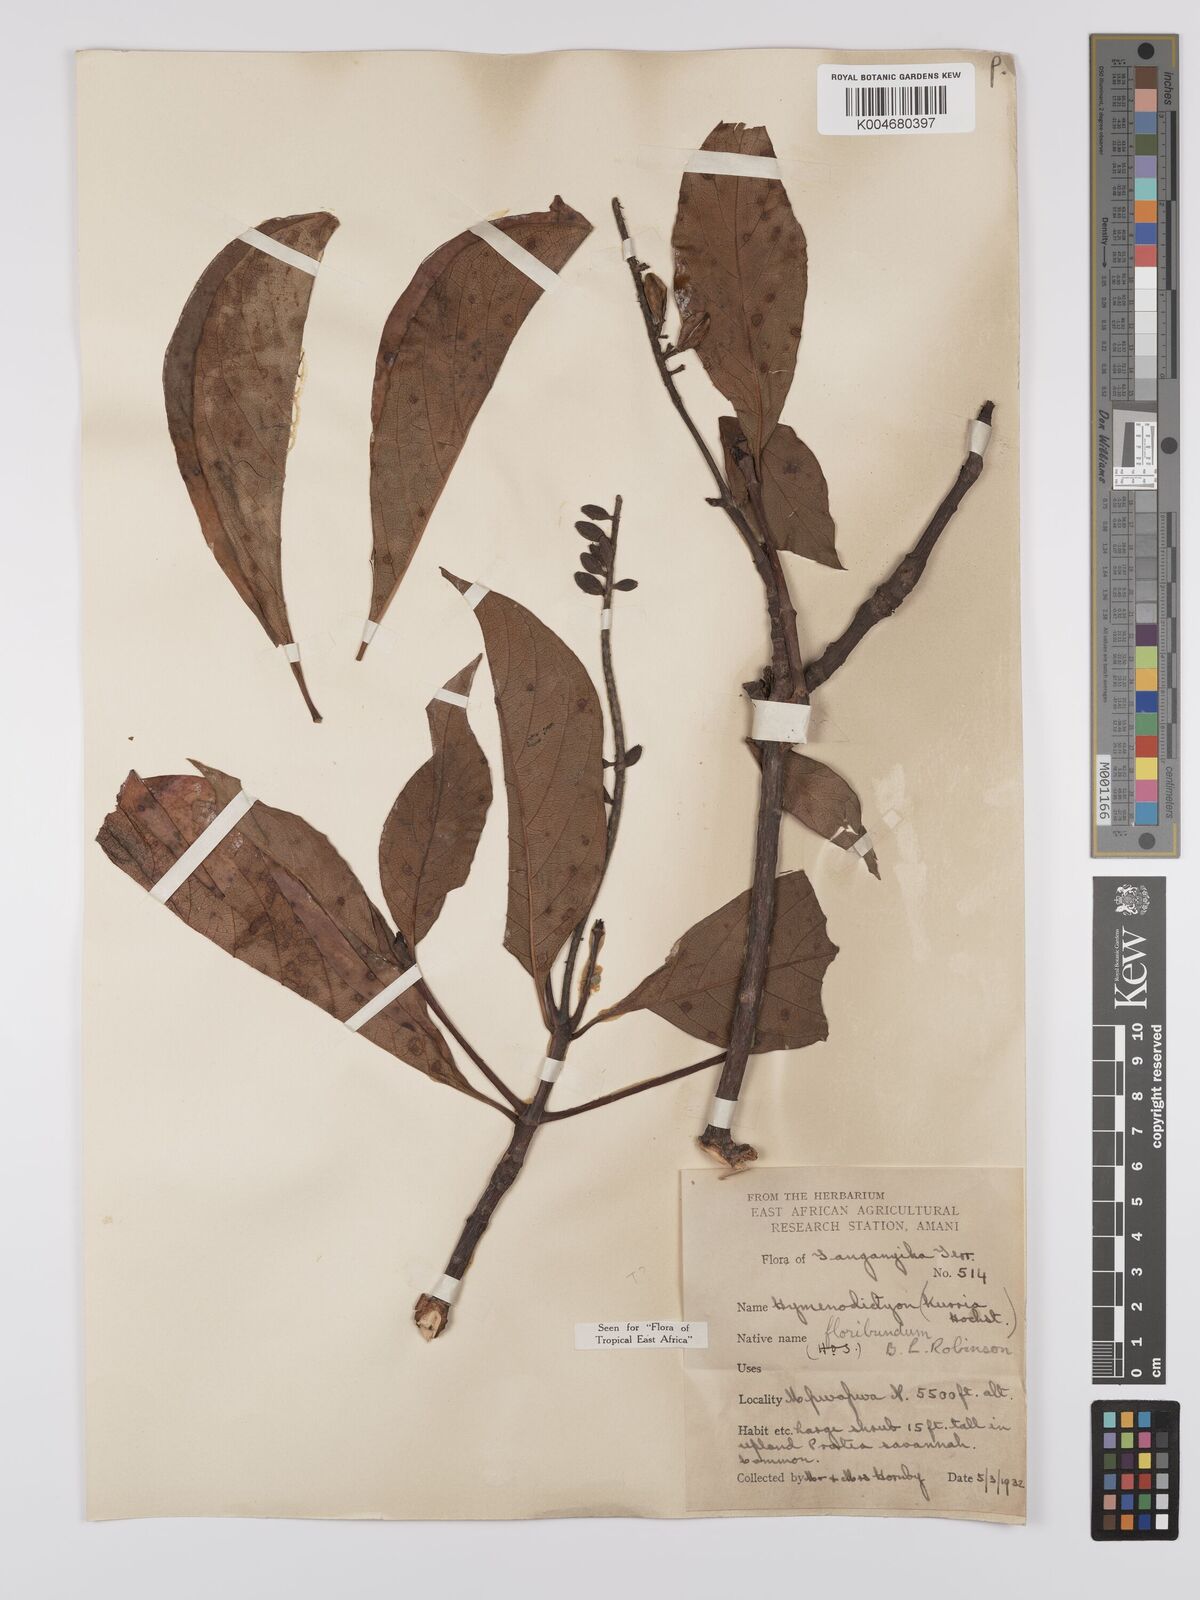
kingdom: Plantae
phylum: Tracheophyta
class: Magnoliopsida
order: Gentianales
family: Rubiaceae
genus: Hymenodictyon
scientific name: Hymenodictyon floribundum
